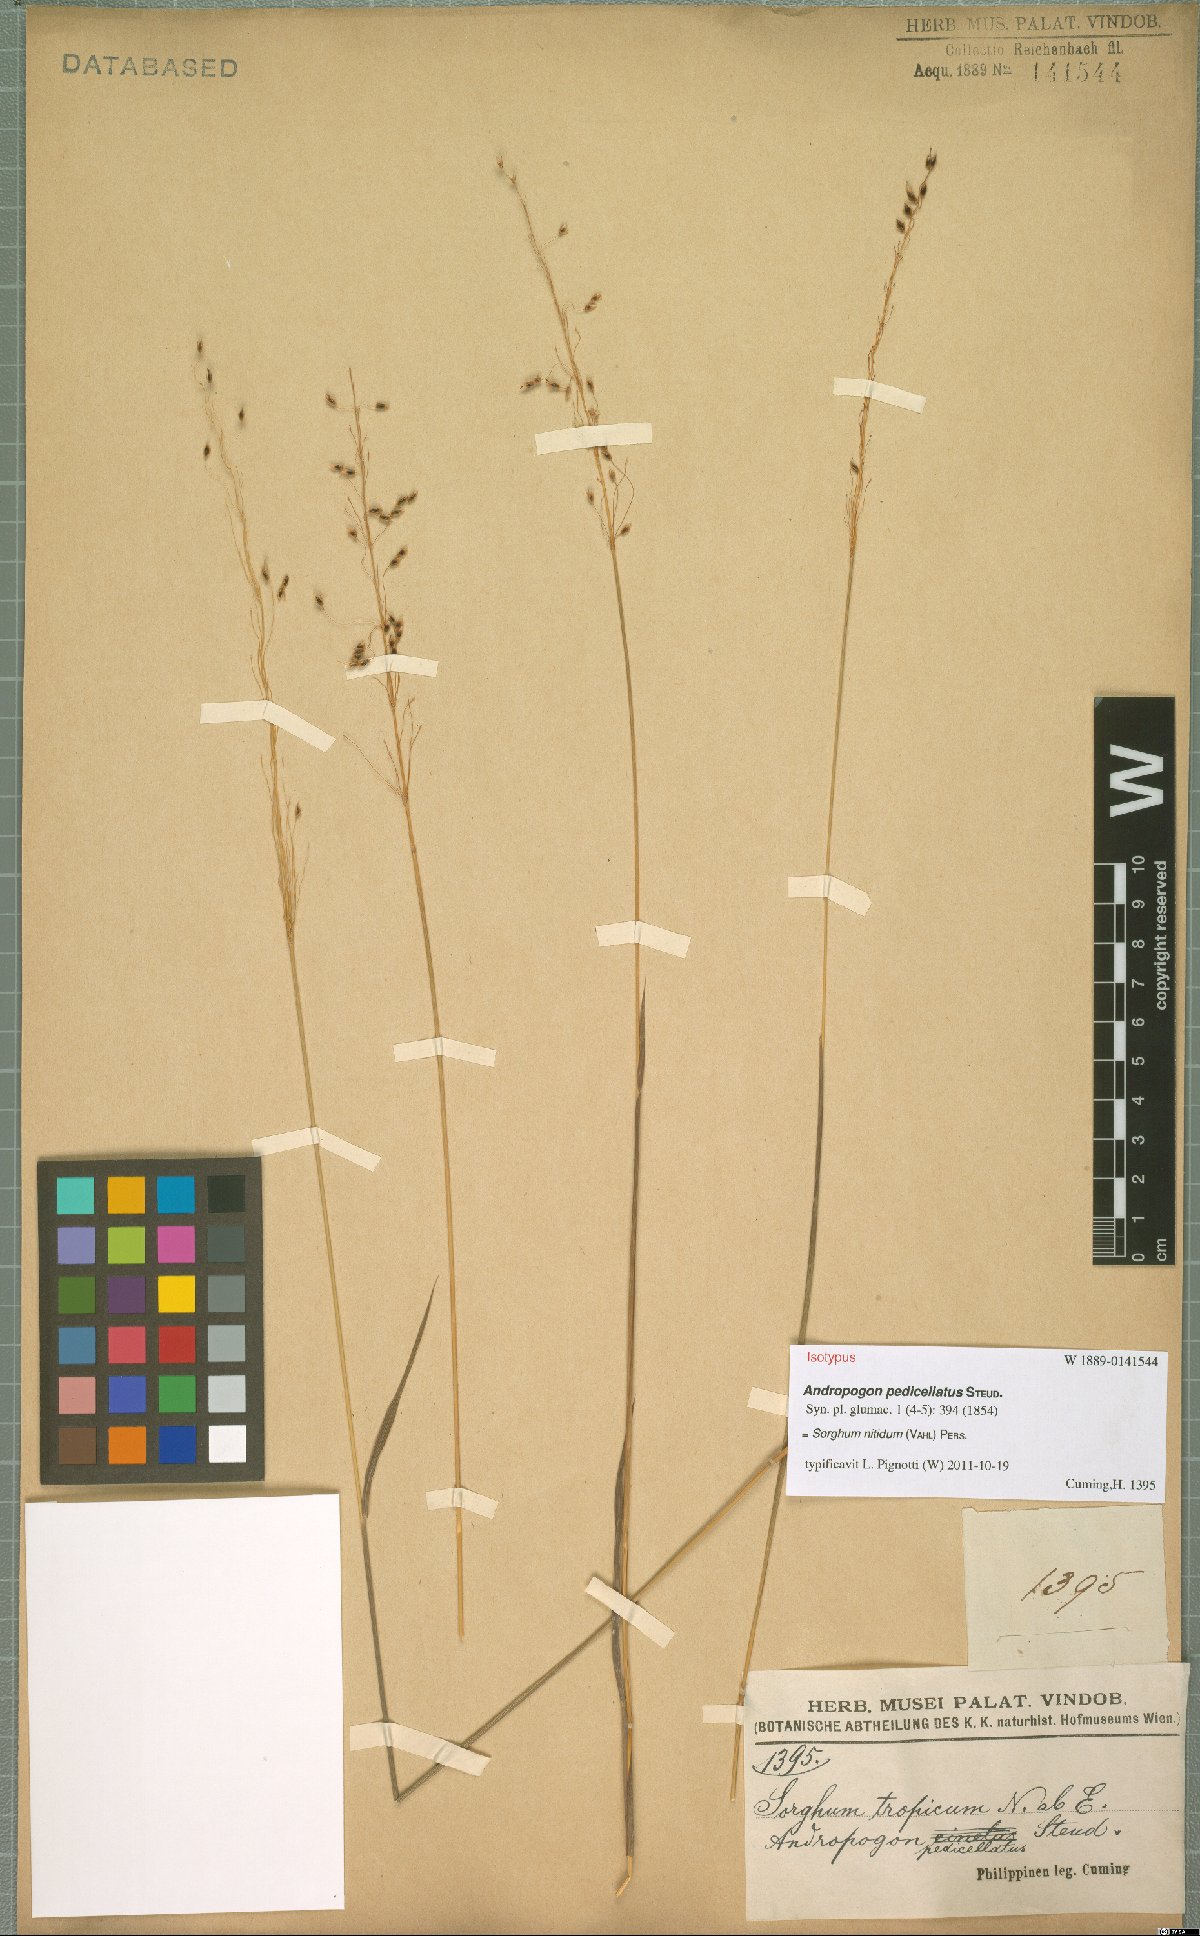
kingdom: Plantae
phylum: Tracheophyta
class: Liliopsida
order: Poales
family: Poaceae
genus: Sorghum
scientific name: Sorghum nitidum
